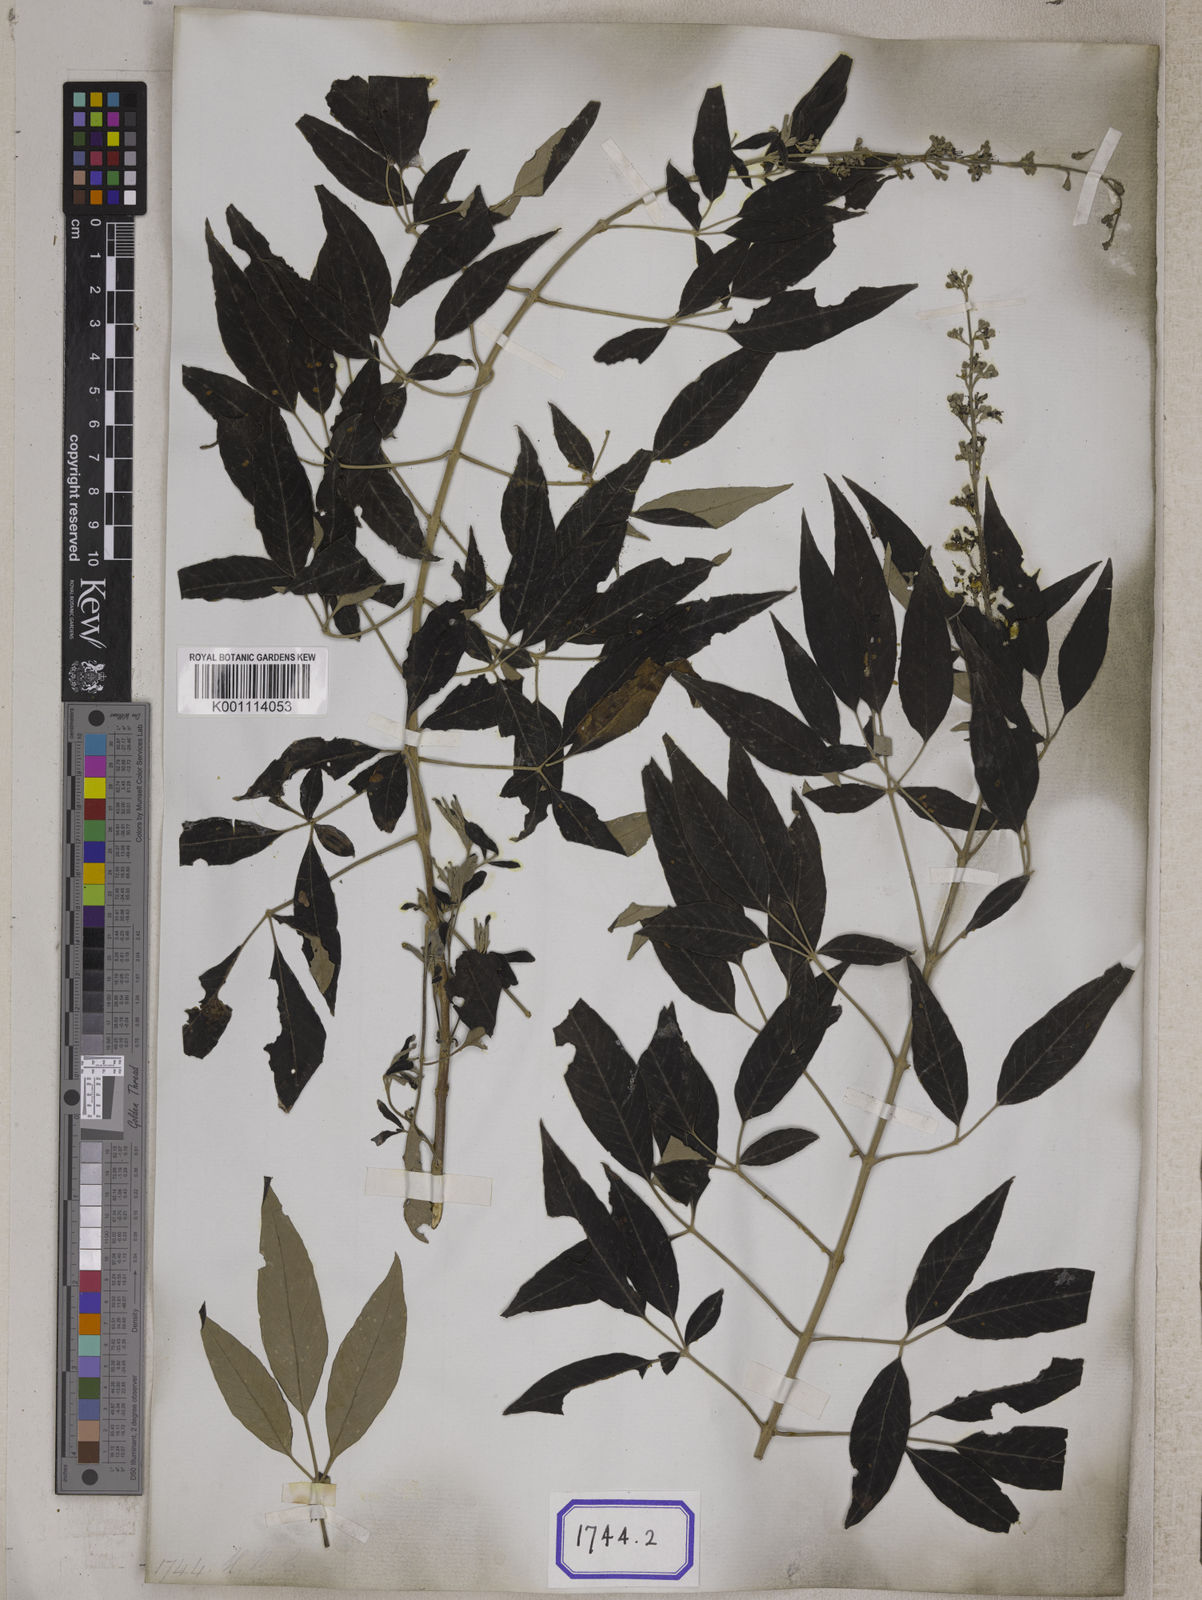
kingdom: Plantae
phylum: Tracheophyta
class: Magnoliopsida
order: Lamiales
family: Lamiaceae
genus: Vitex
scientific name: Vitex negundo
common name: Chinese chastetree
